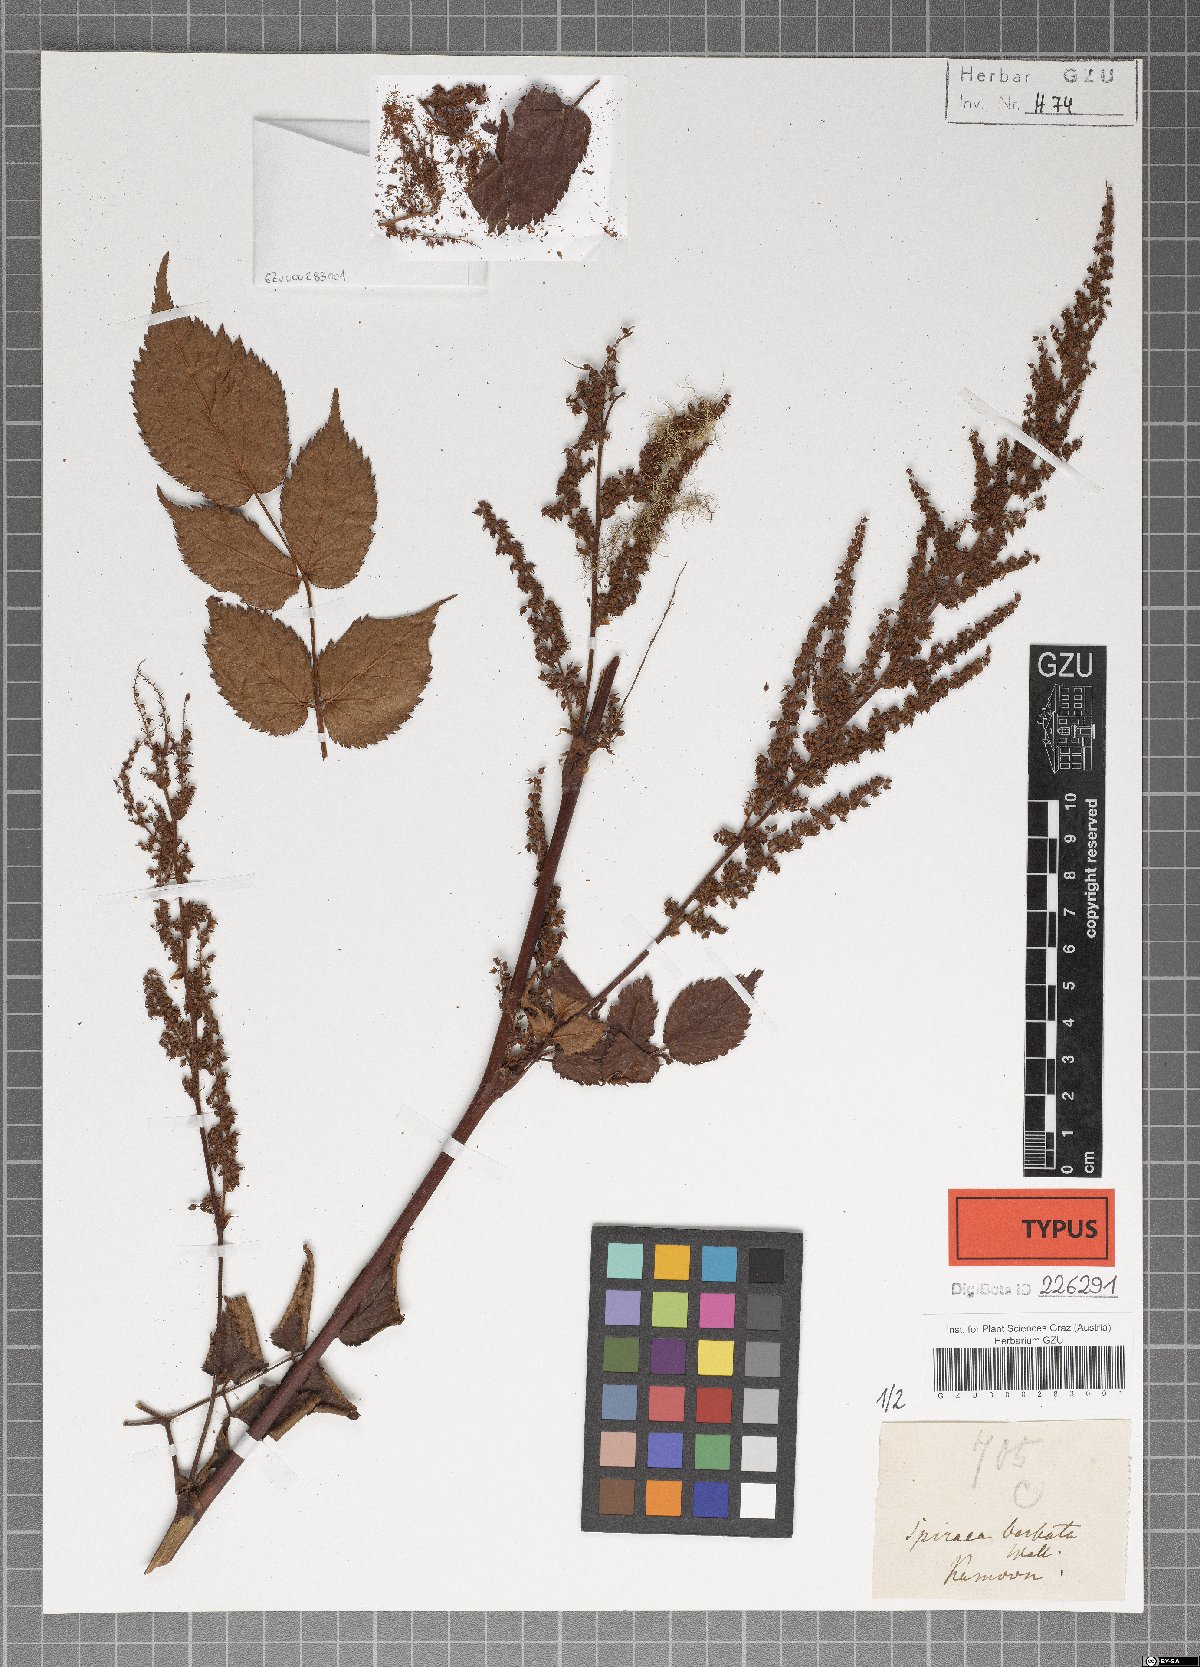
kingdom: Plantae
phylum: Tracheophyta
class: Magnoliopsida
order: Saxifragales
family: Saxifragaceae
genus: Astilbe
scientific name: Astilbe rivularis
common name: Tall false-buck's-beard
